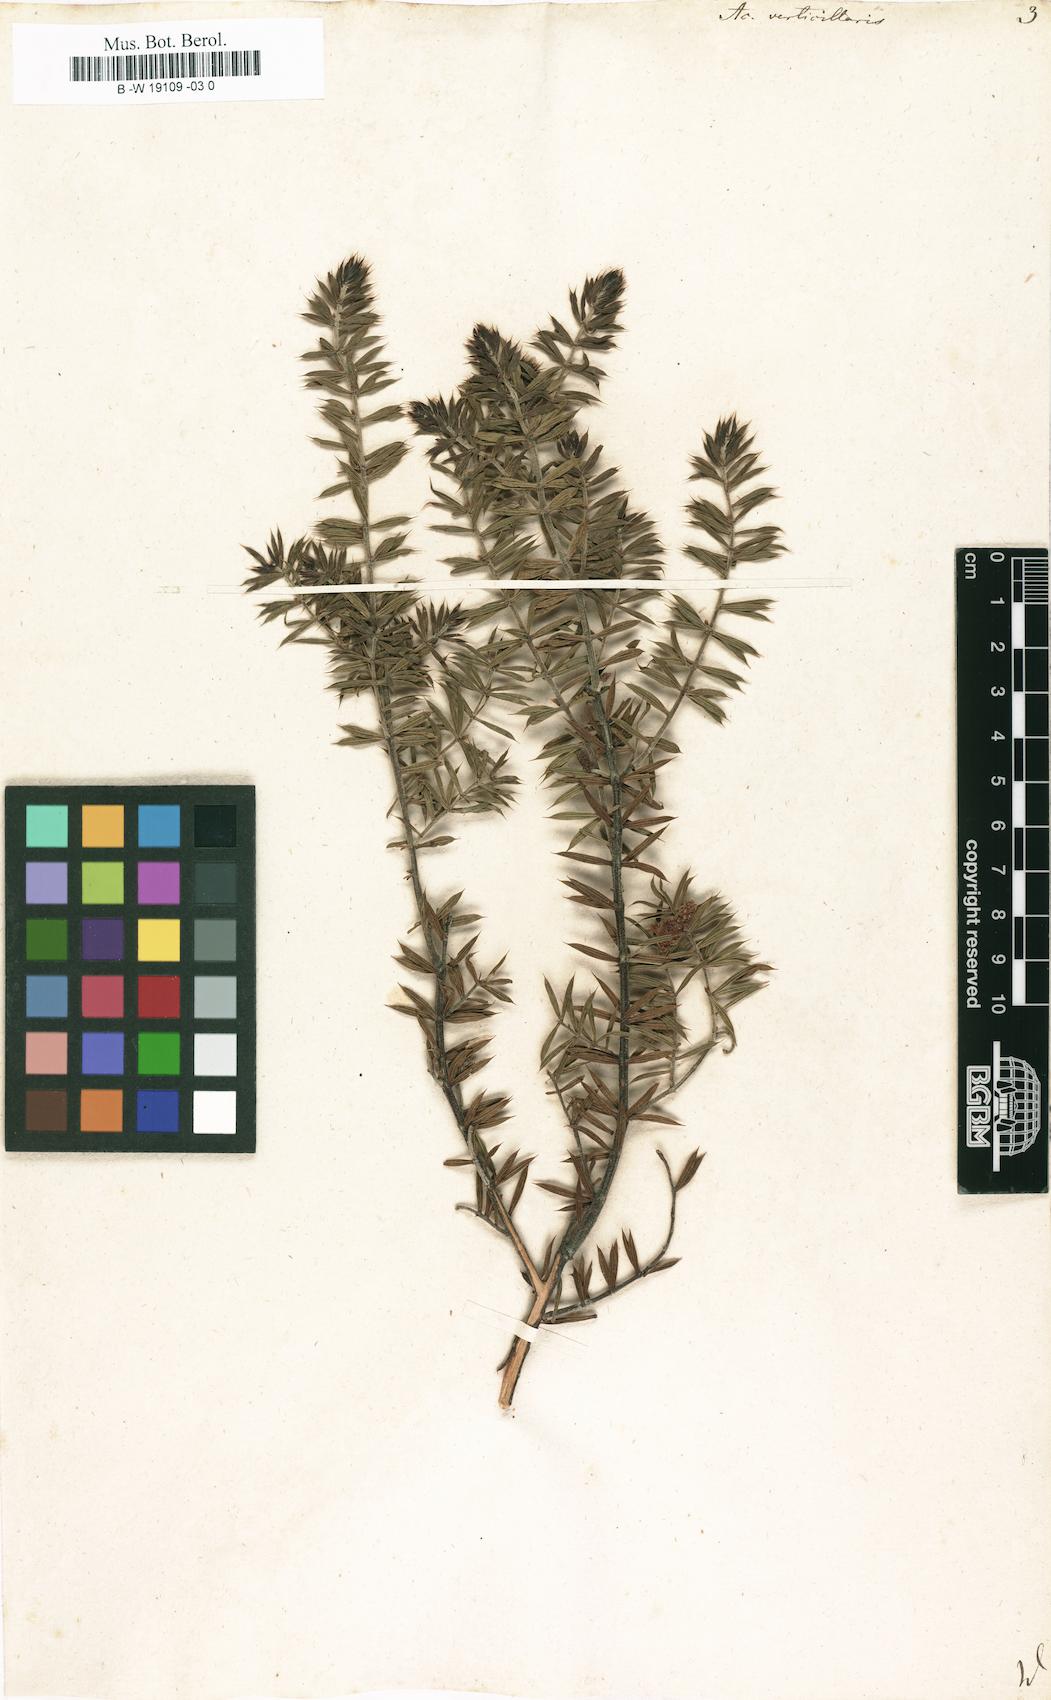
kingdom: Plantae
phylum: Tracheophyta
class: Magnoliopsida
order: Fabales
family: Fabaceae
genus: Acacia
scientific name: Acacia verticillata
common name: Prickly moses
